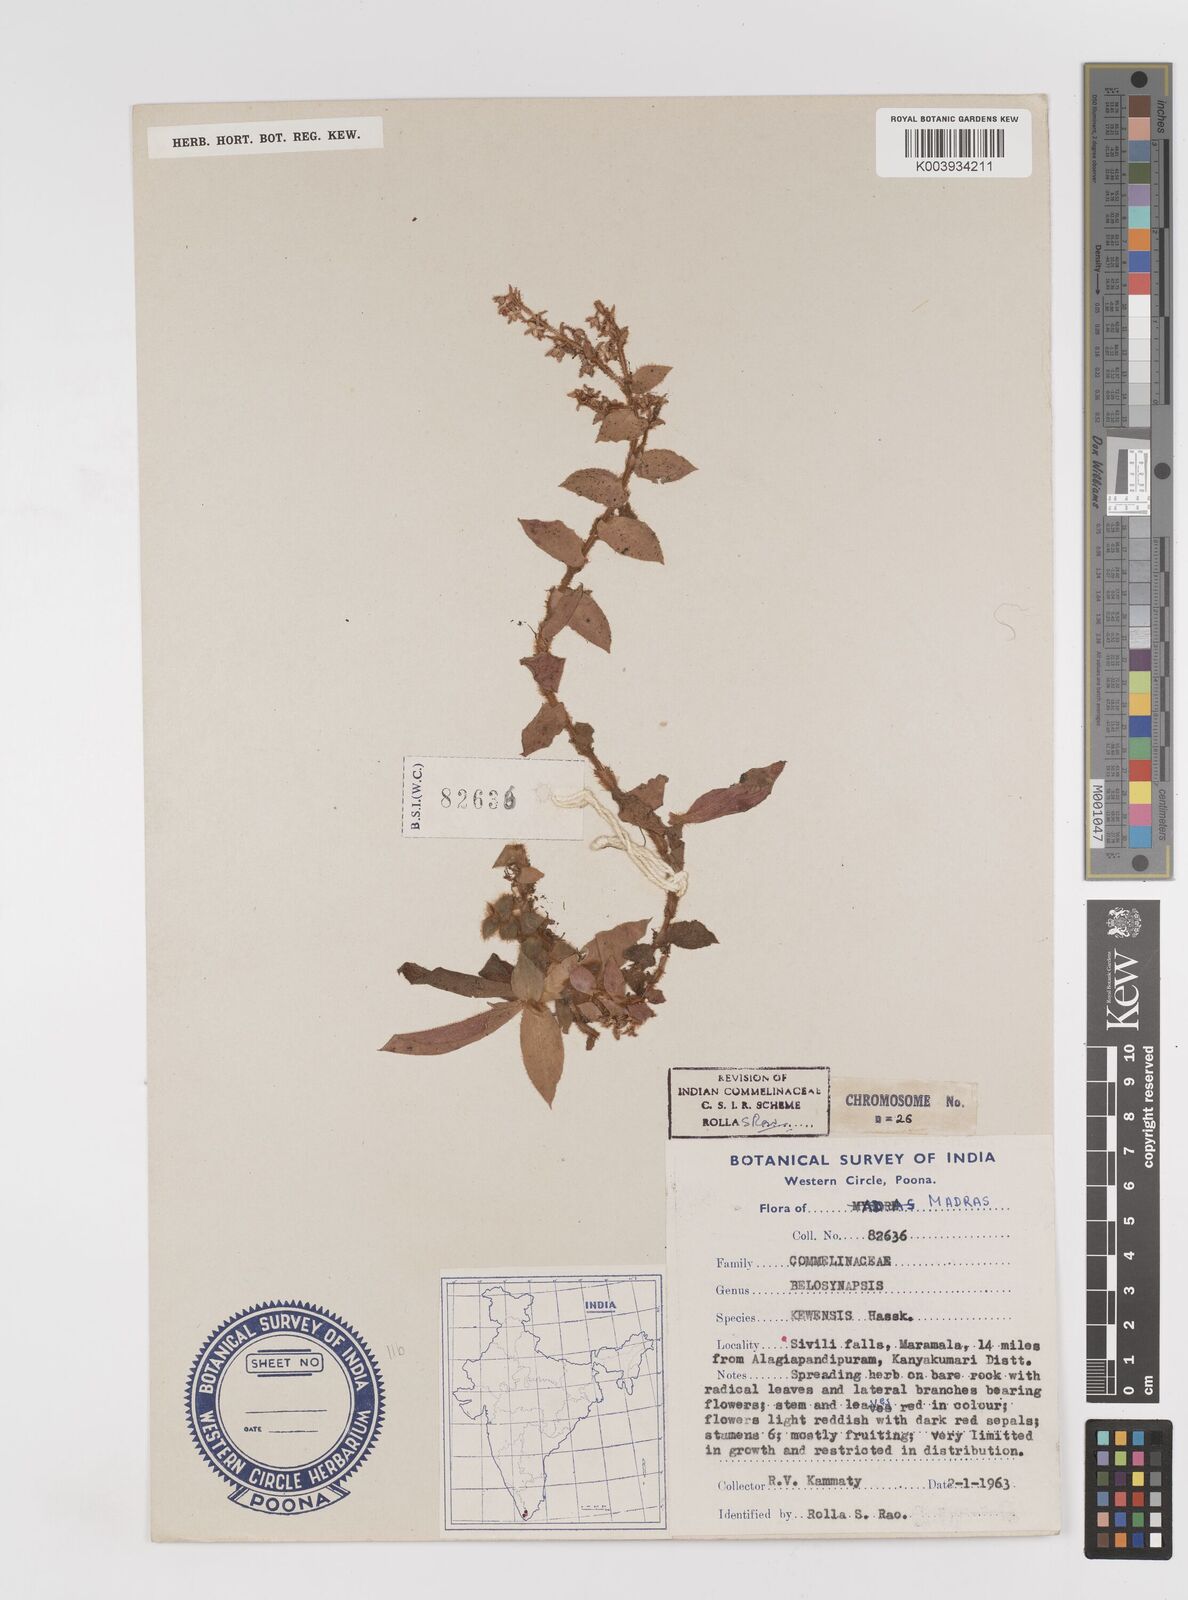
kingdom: Plantae
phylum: Tracheophyta
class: Liliopsida
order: Commelinales
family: Commelinaceae
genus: Cyanotis
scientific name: Cyanotis beddomei
